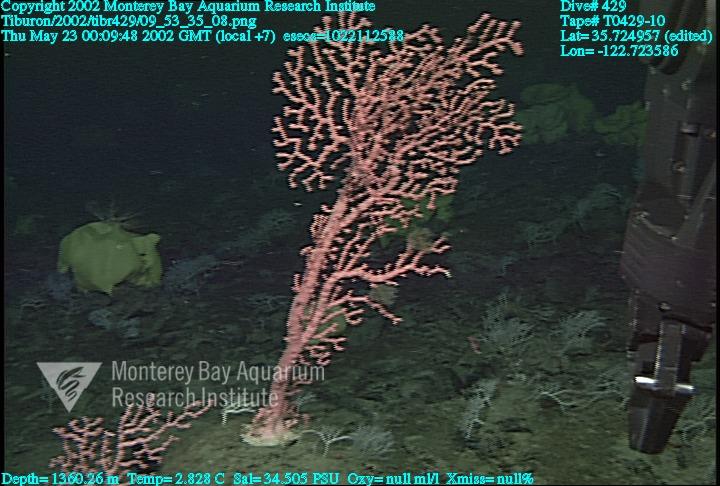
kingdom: Animalia
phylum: Porifera
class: Hexactinellida
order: Lyssacinosida
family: Rossellidae
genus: Staurocalyptus
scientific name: Staurocalyptus
